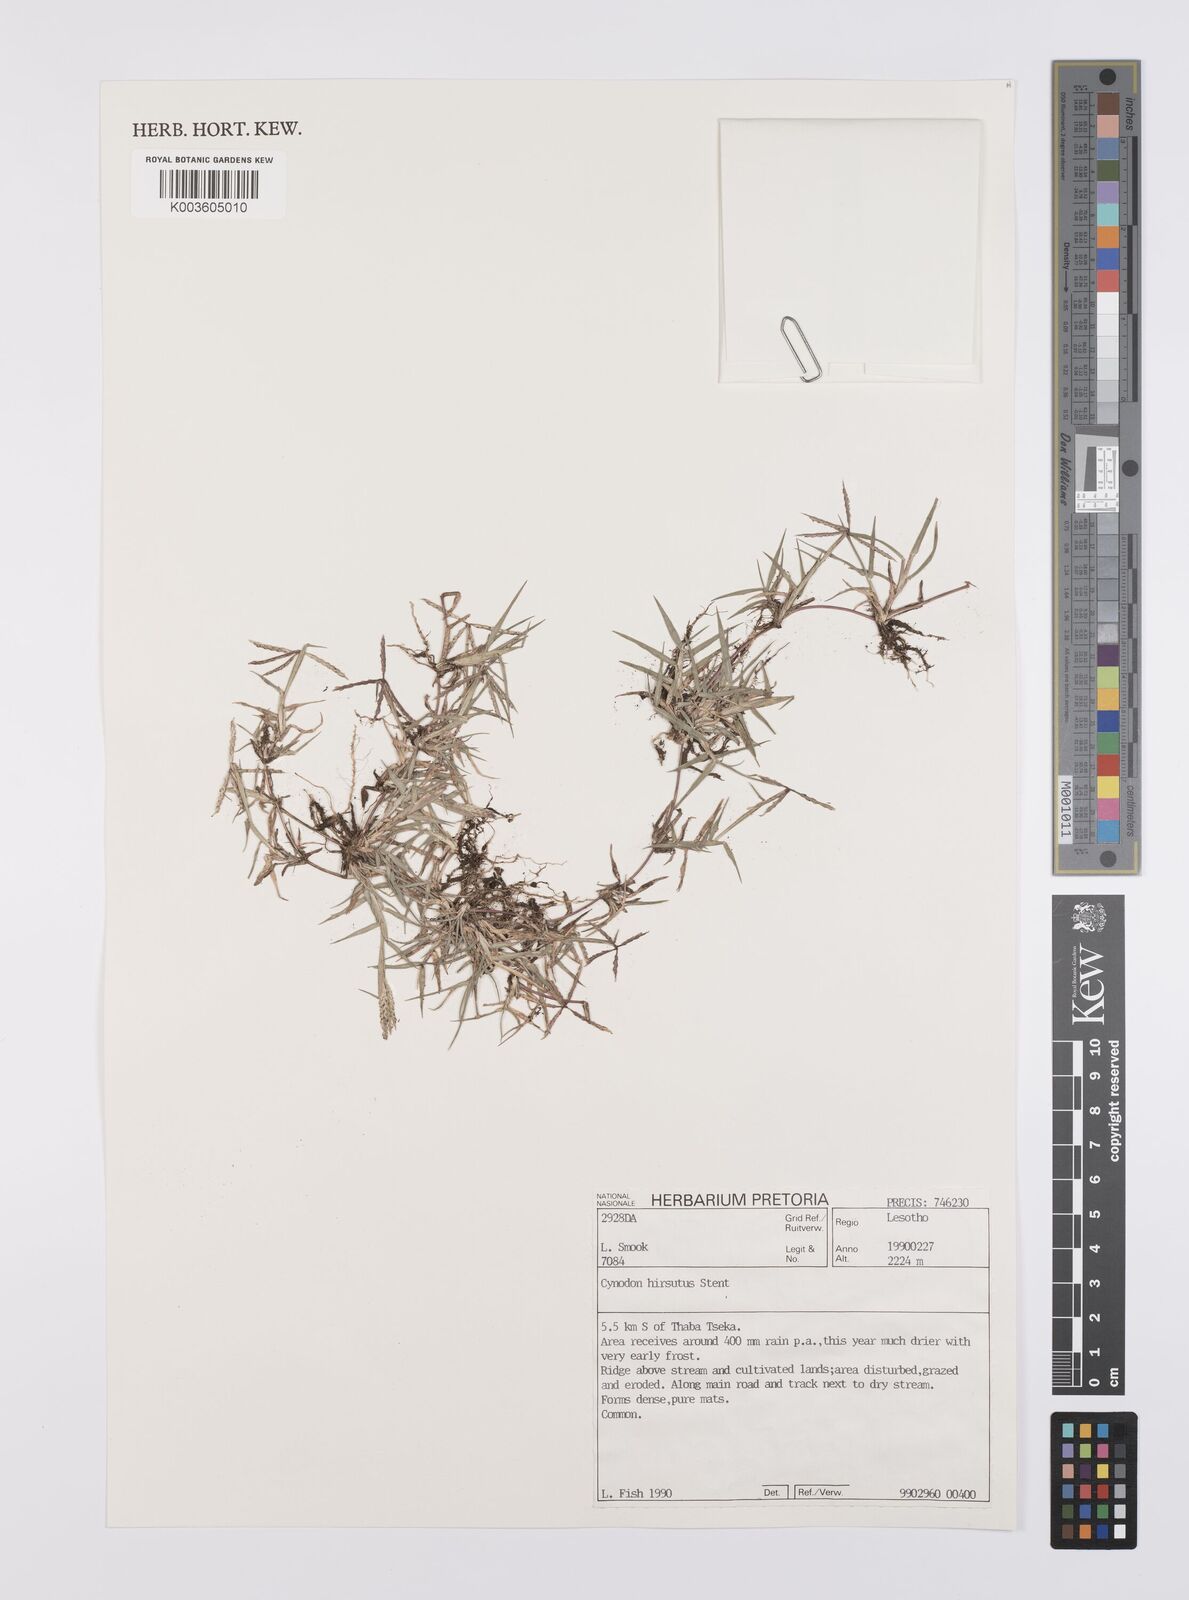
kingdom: Plantae
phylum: Tracheophyta
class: Liliopsida
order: Poales
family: Poaceae
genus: Cynodon
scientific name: Cynodon incompletus
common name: African bermuda-grass
